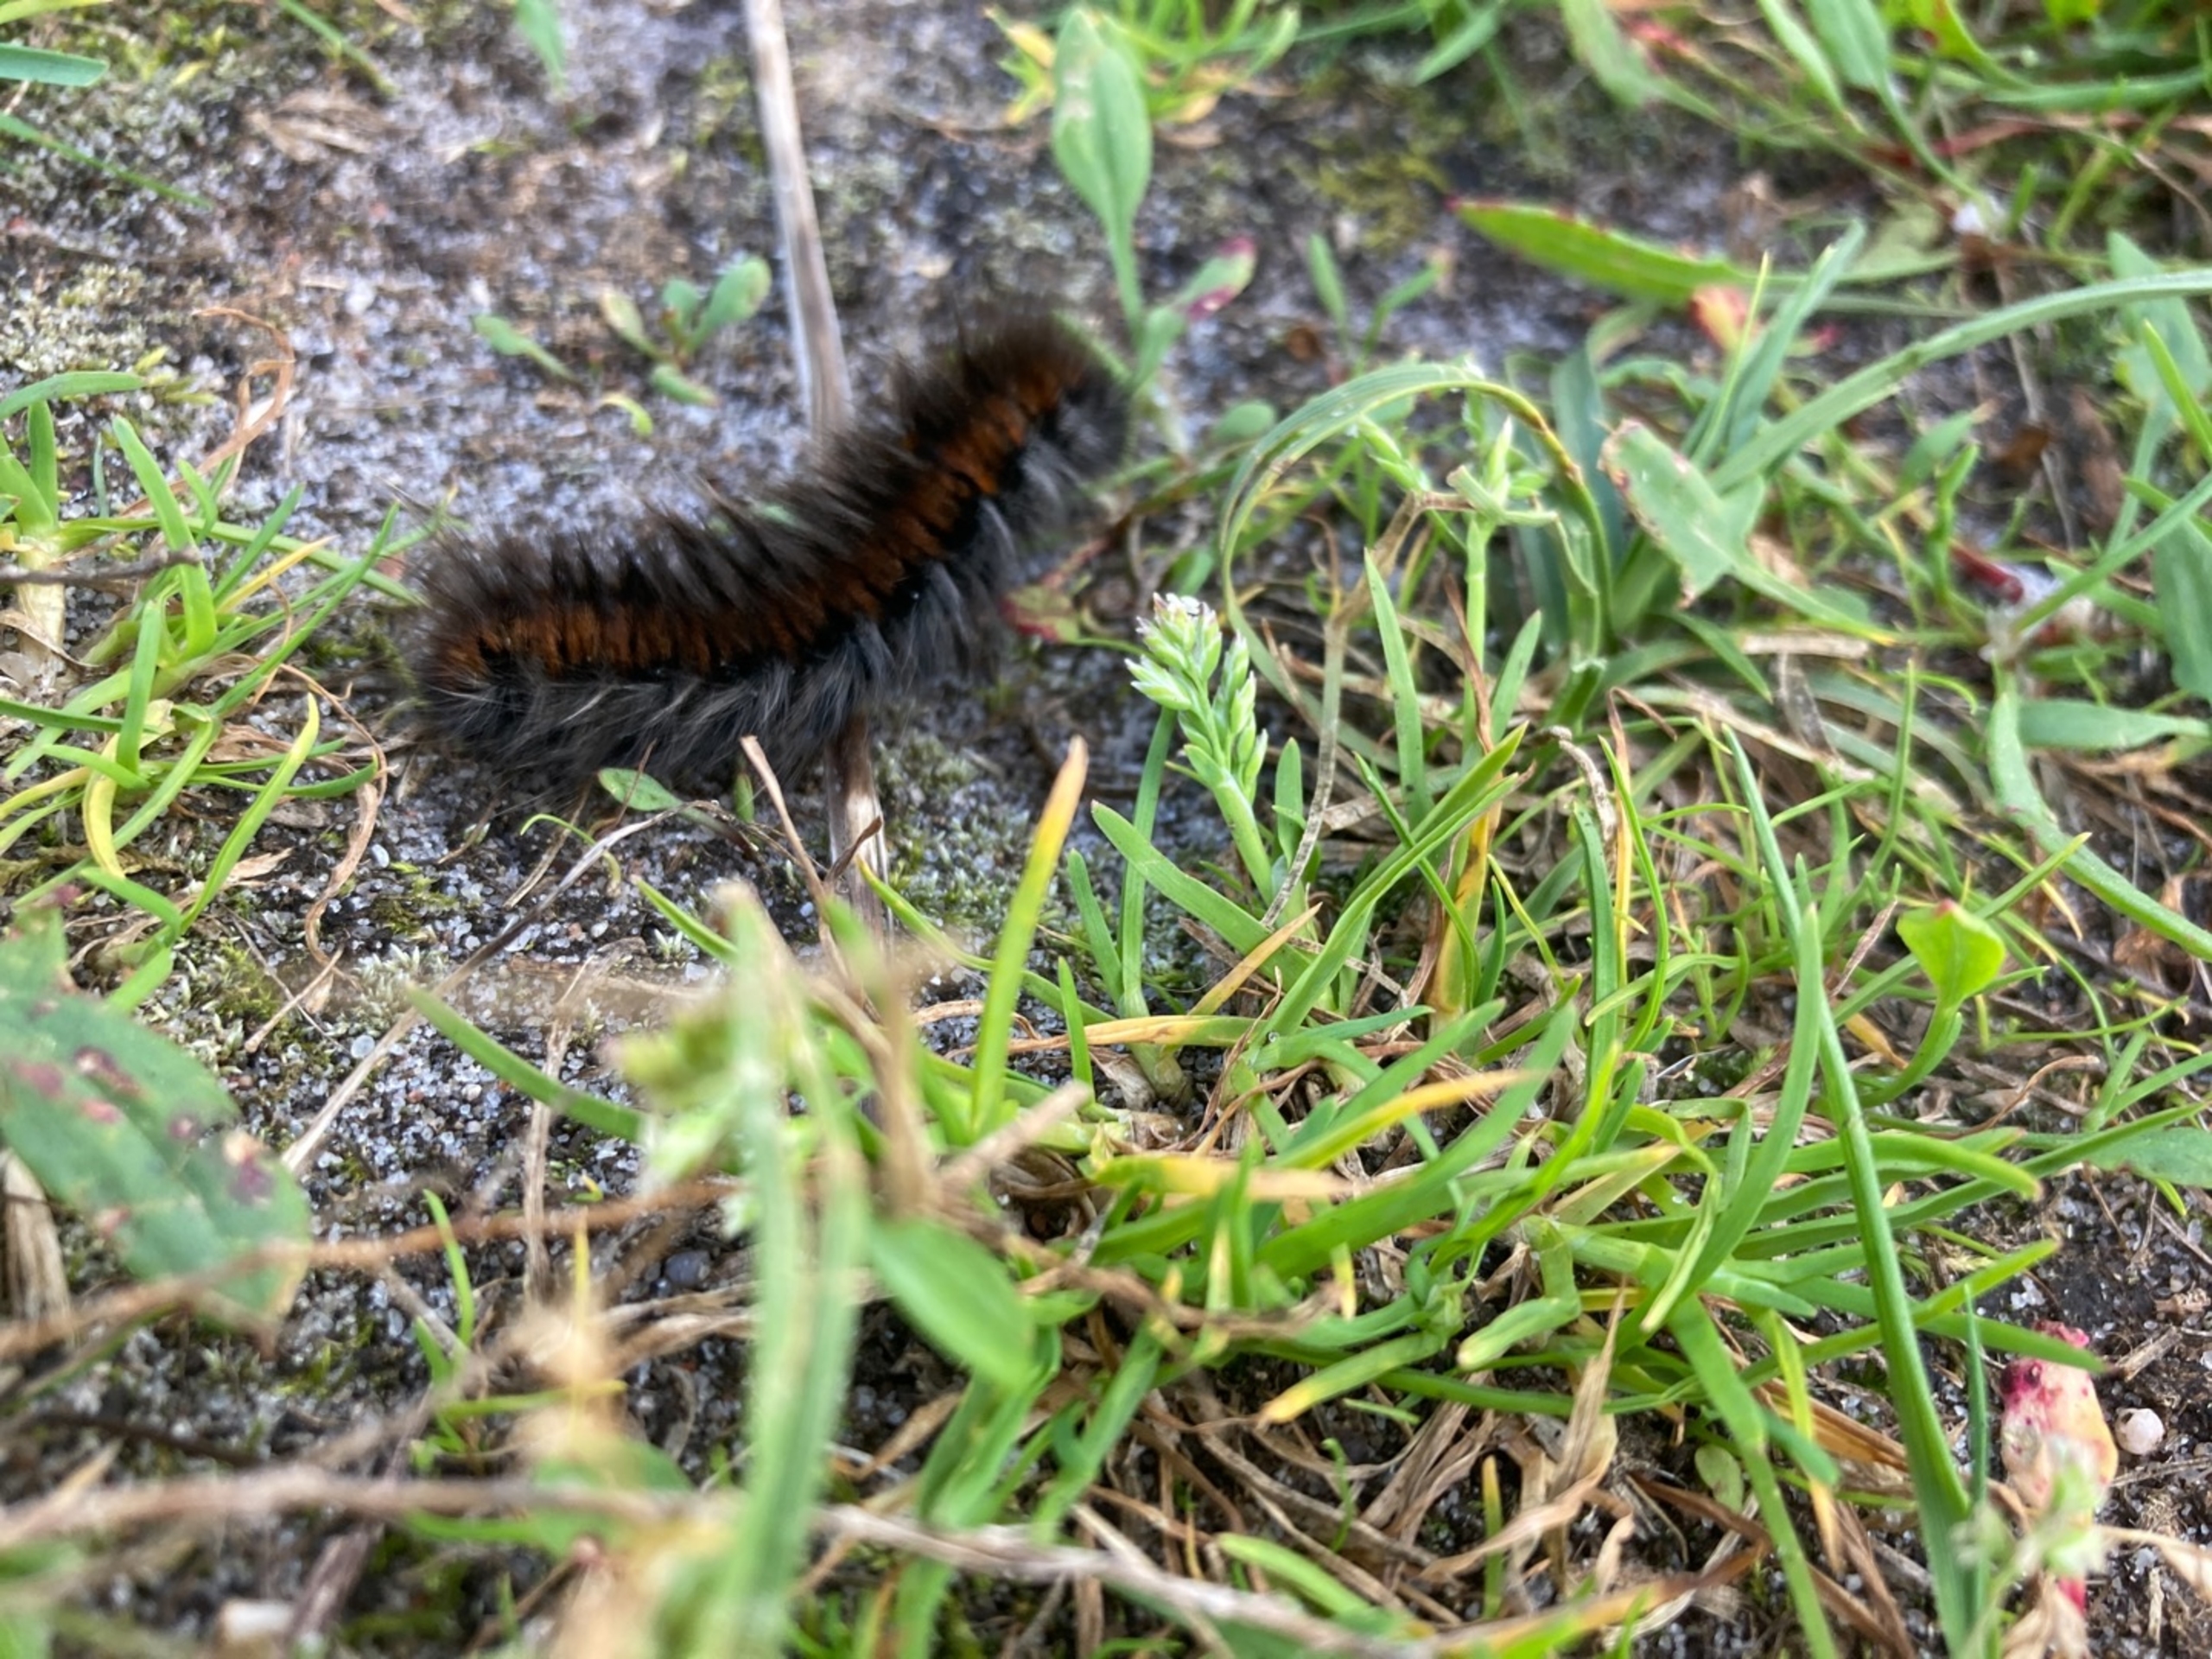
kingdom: Animalia
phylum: Arthropoda
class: Insecta
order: Lepidoptera
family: Lasiocampidae
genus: Macrothylacia
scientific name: Macrothylacia rubi
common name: Brombærspinder
